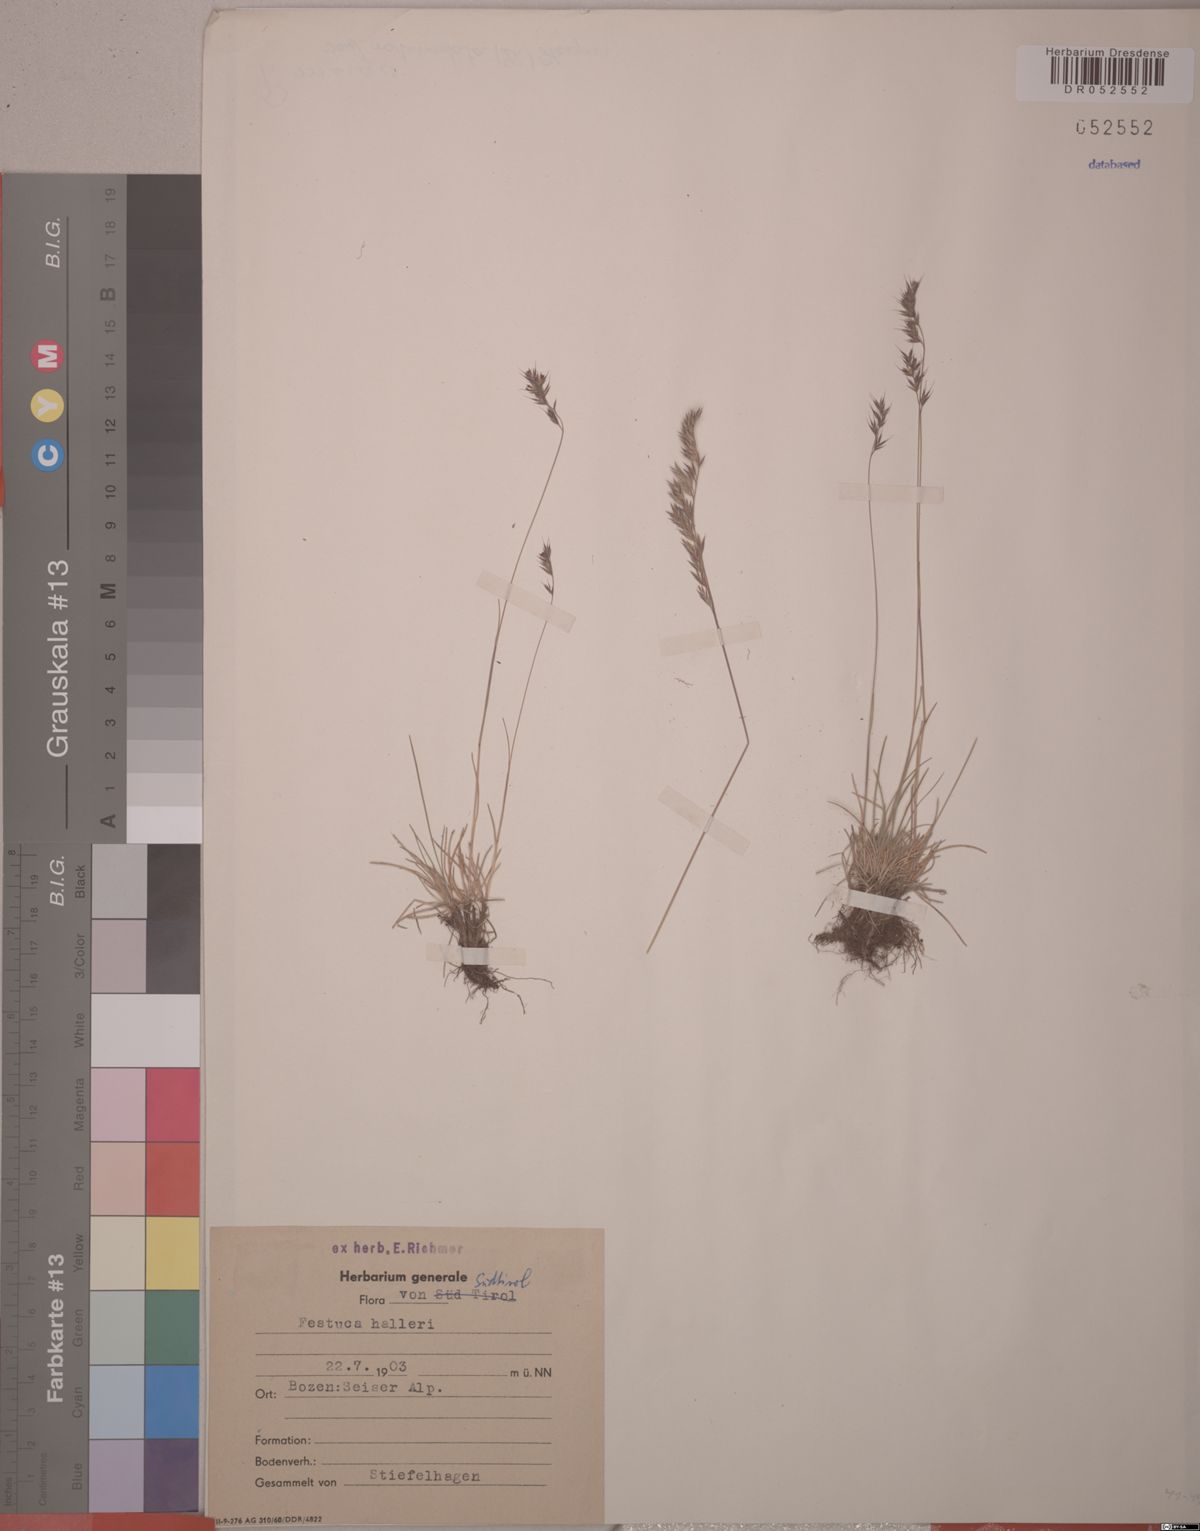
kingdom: Plantae
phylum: Tracheophyta
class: Liliopsida
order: Poales
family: Poaceae
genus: Festuca
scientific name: Festuca halleri
